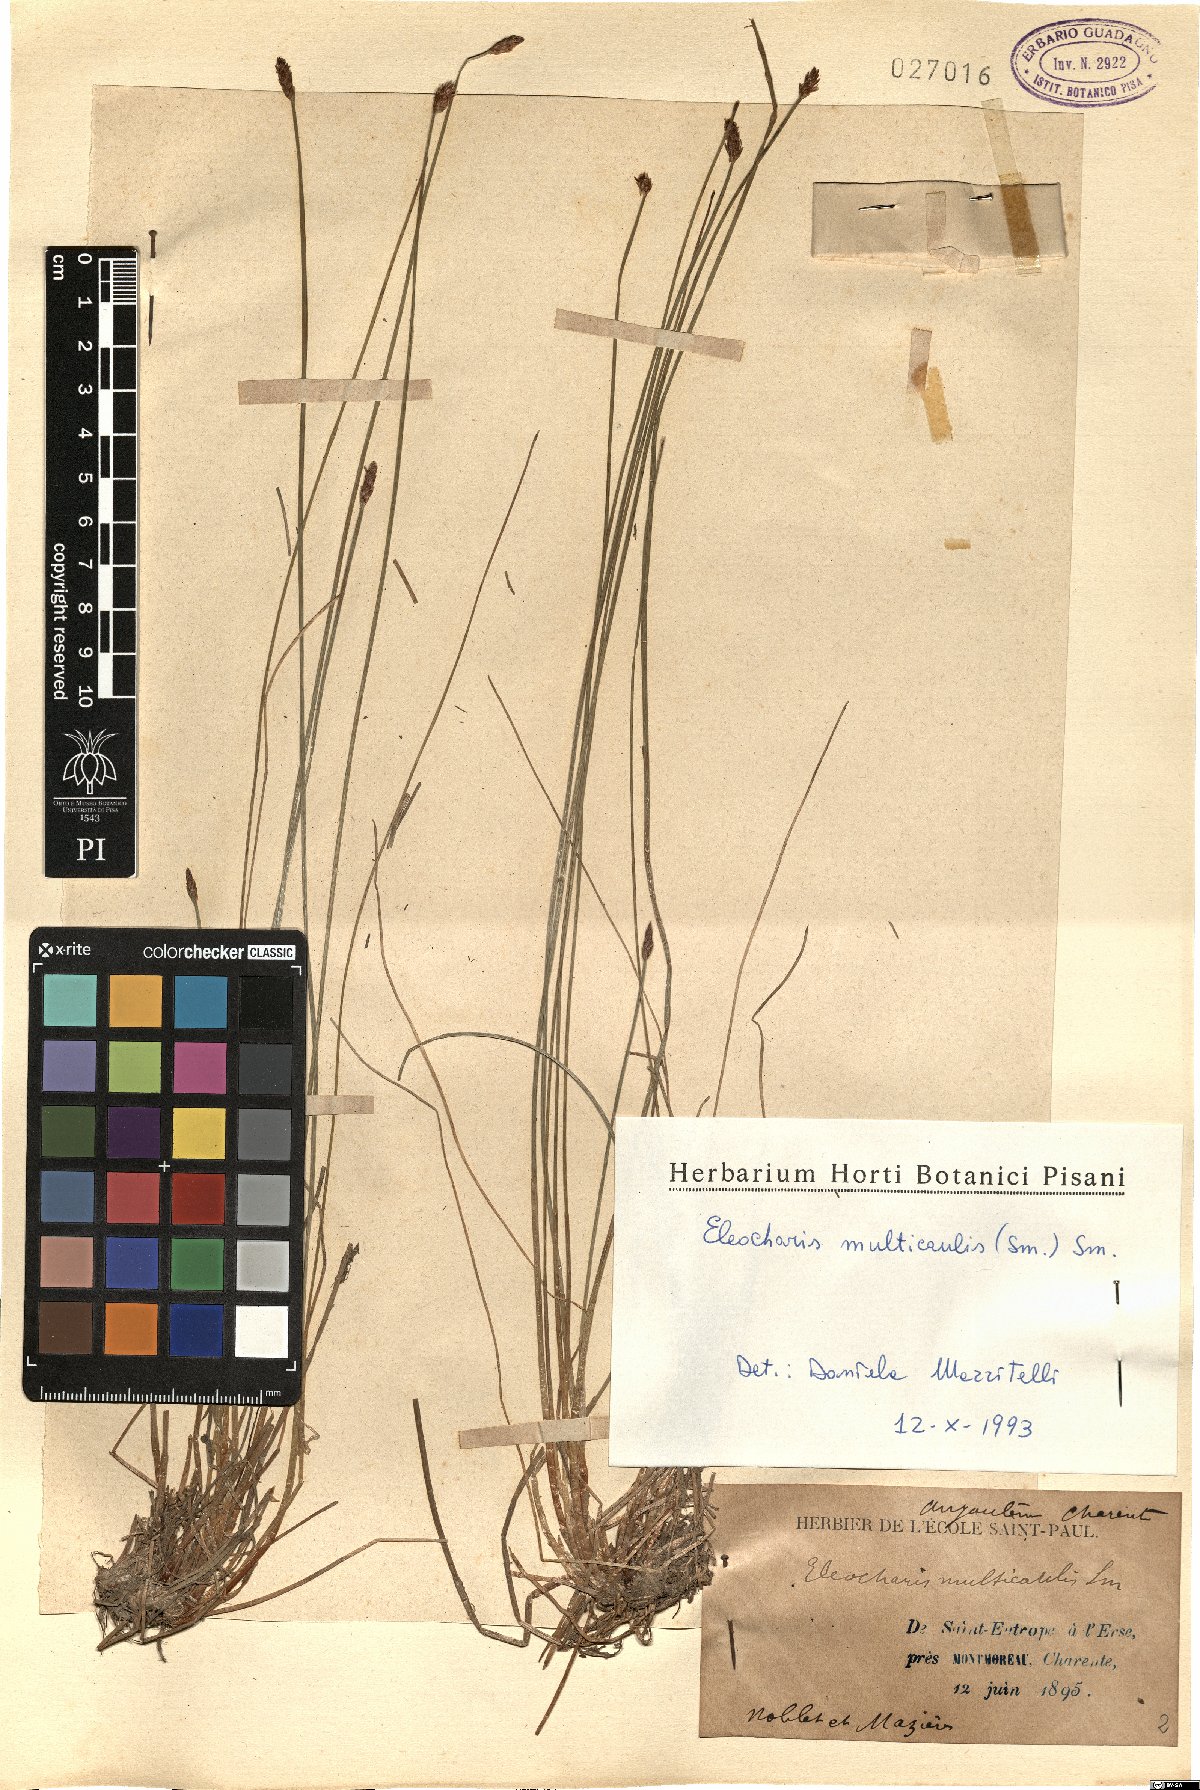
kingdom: Plantae
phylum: Tracheophyta
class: Liliopsida
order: Poales
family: Cyperaceae
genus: Eleocharis
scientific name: Eleocharis multicaulis
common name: Many-stalked spike-rush
